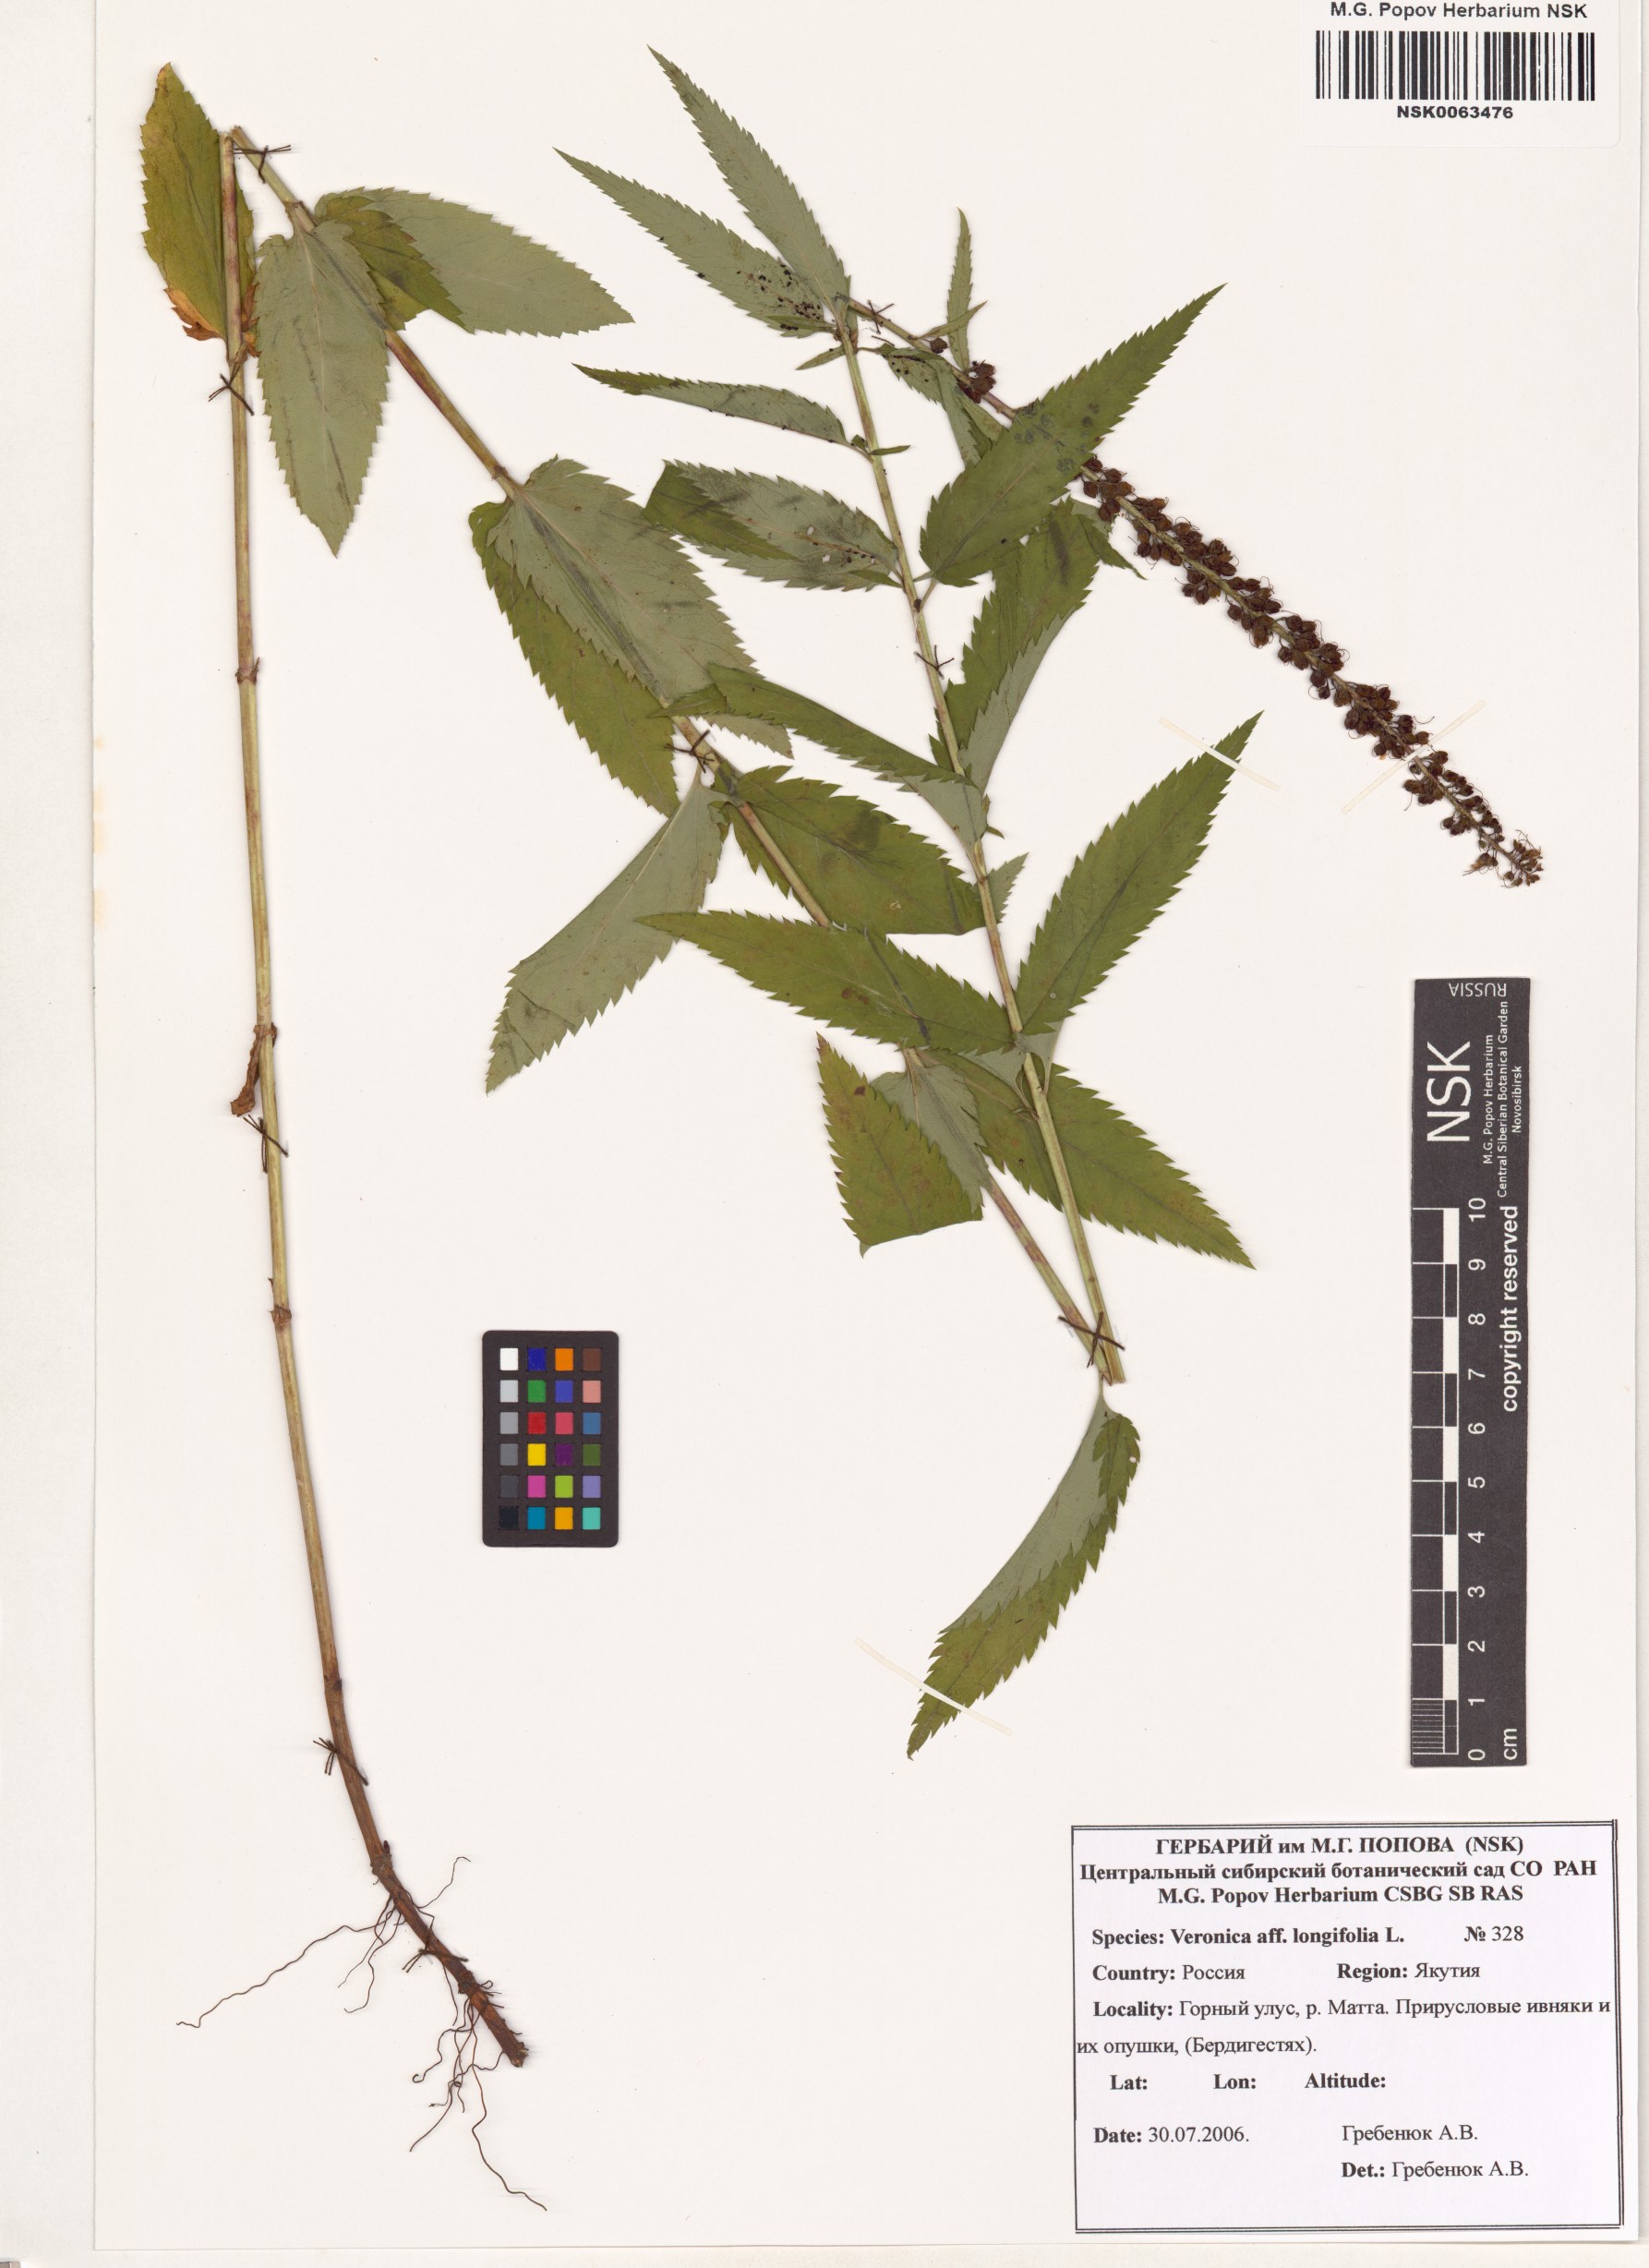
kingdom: Plantae
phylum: Tracheophyta
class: Magnoliopsida
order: Lamiales
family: Plantaginaceae
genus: Veronica
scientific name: Veronica longifolia
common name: Garden speedwell
